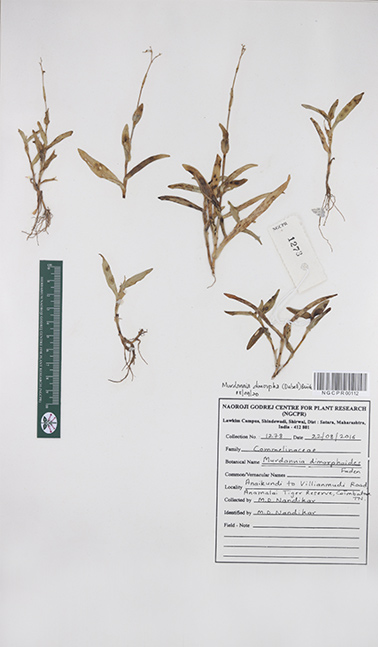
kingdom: Plantae
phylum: Tracheophyta
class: Liliopsida
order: Commelinales
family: Commelinaceae
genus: Murdannia
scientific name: Murdannia dimorpha
